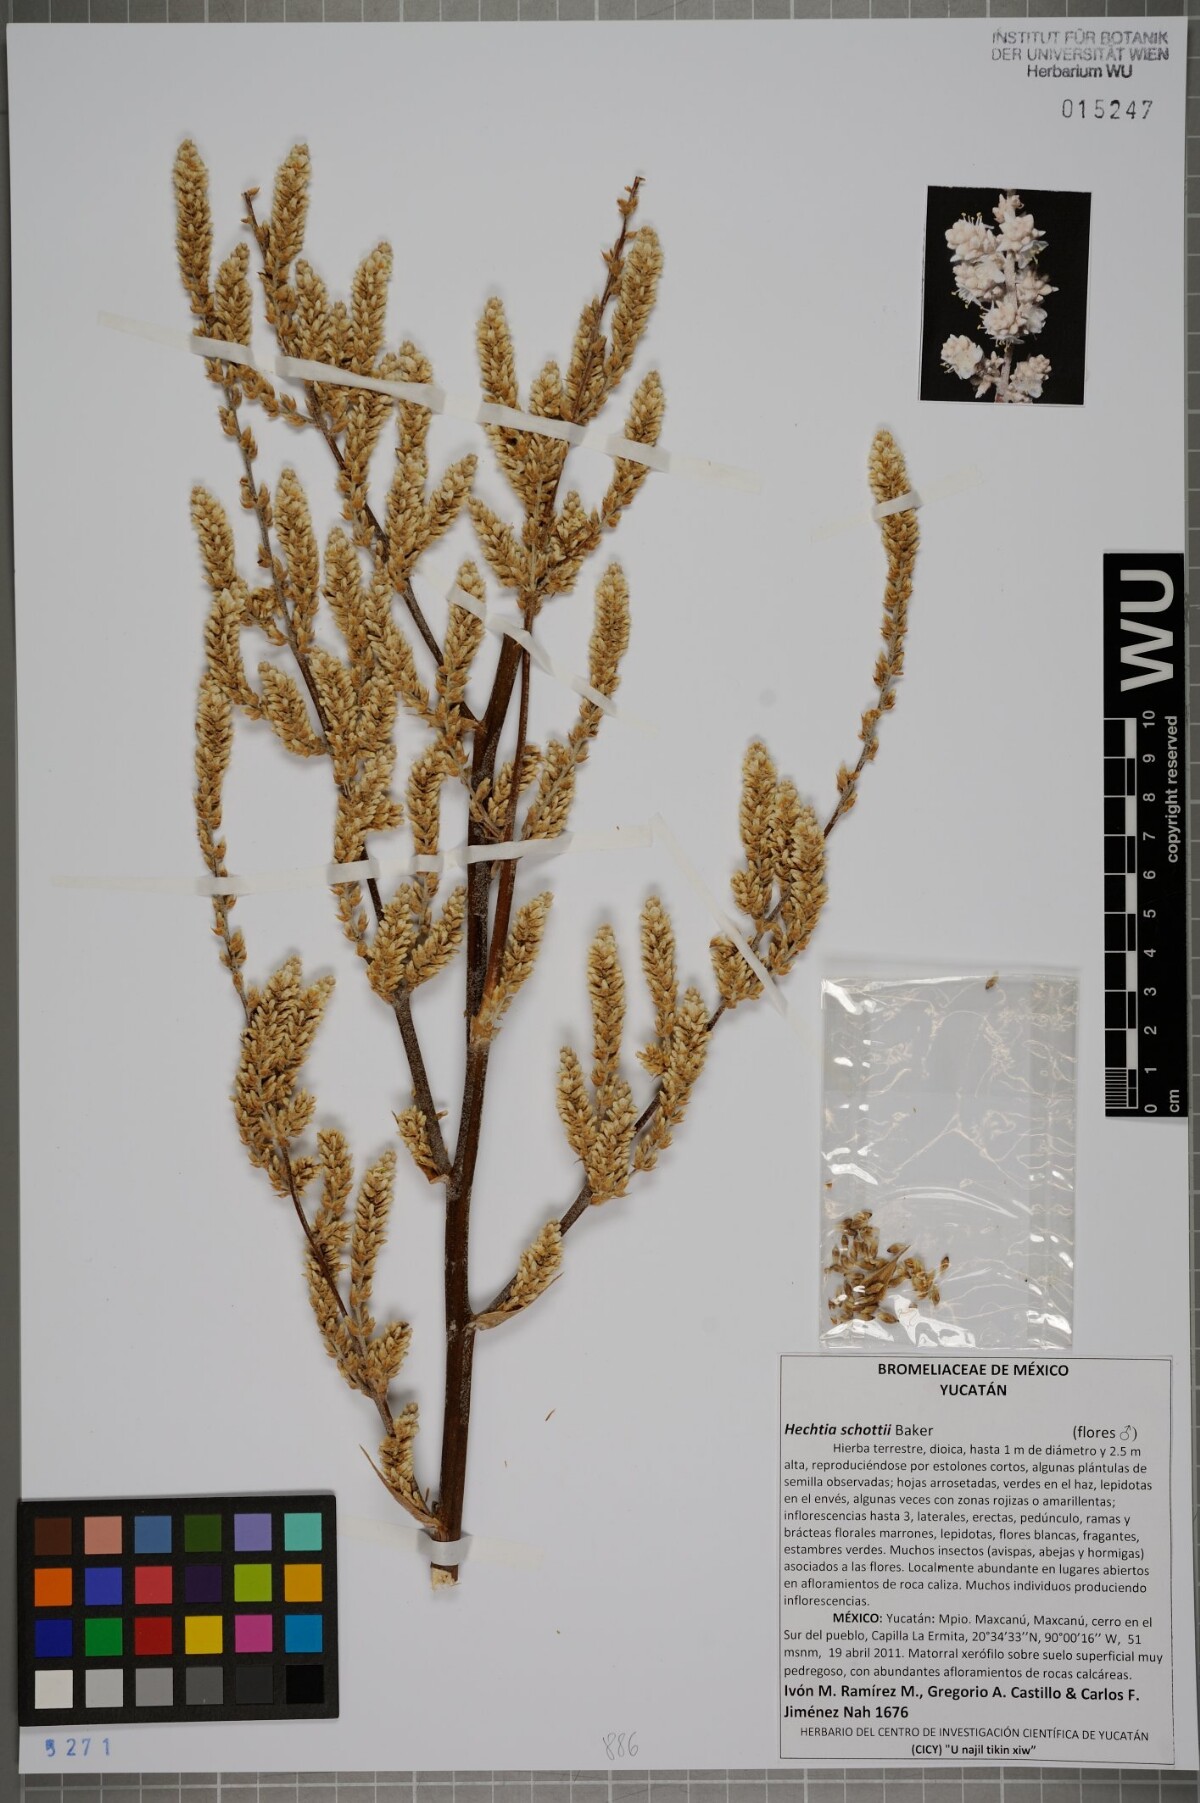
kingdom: Plantae
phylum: Tracheophyta
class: Liliopsida
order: Poales
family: Bromeliaceae
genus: Hechtia
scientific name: Hechtia schottii
